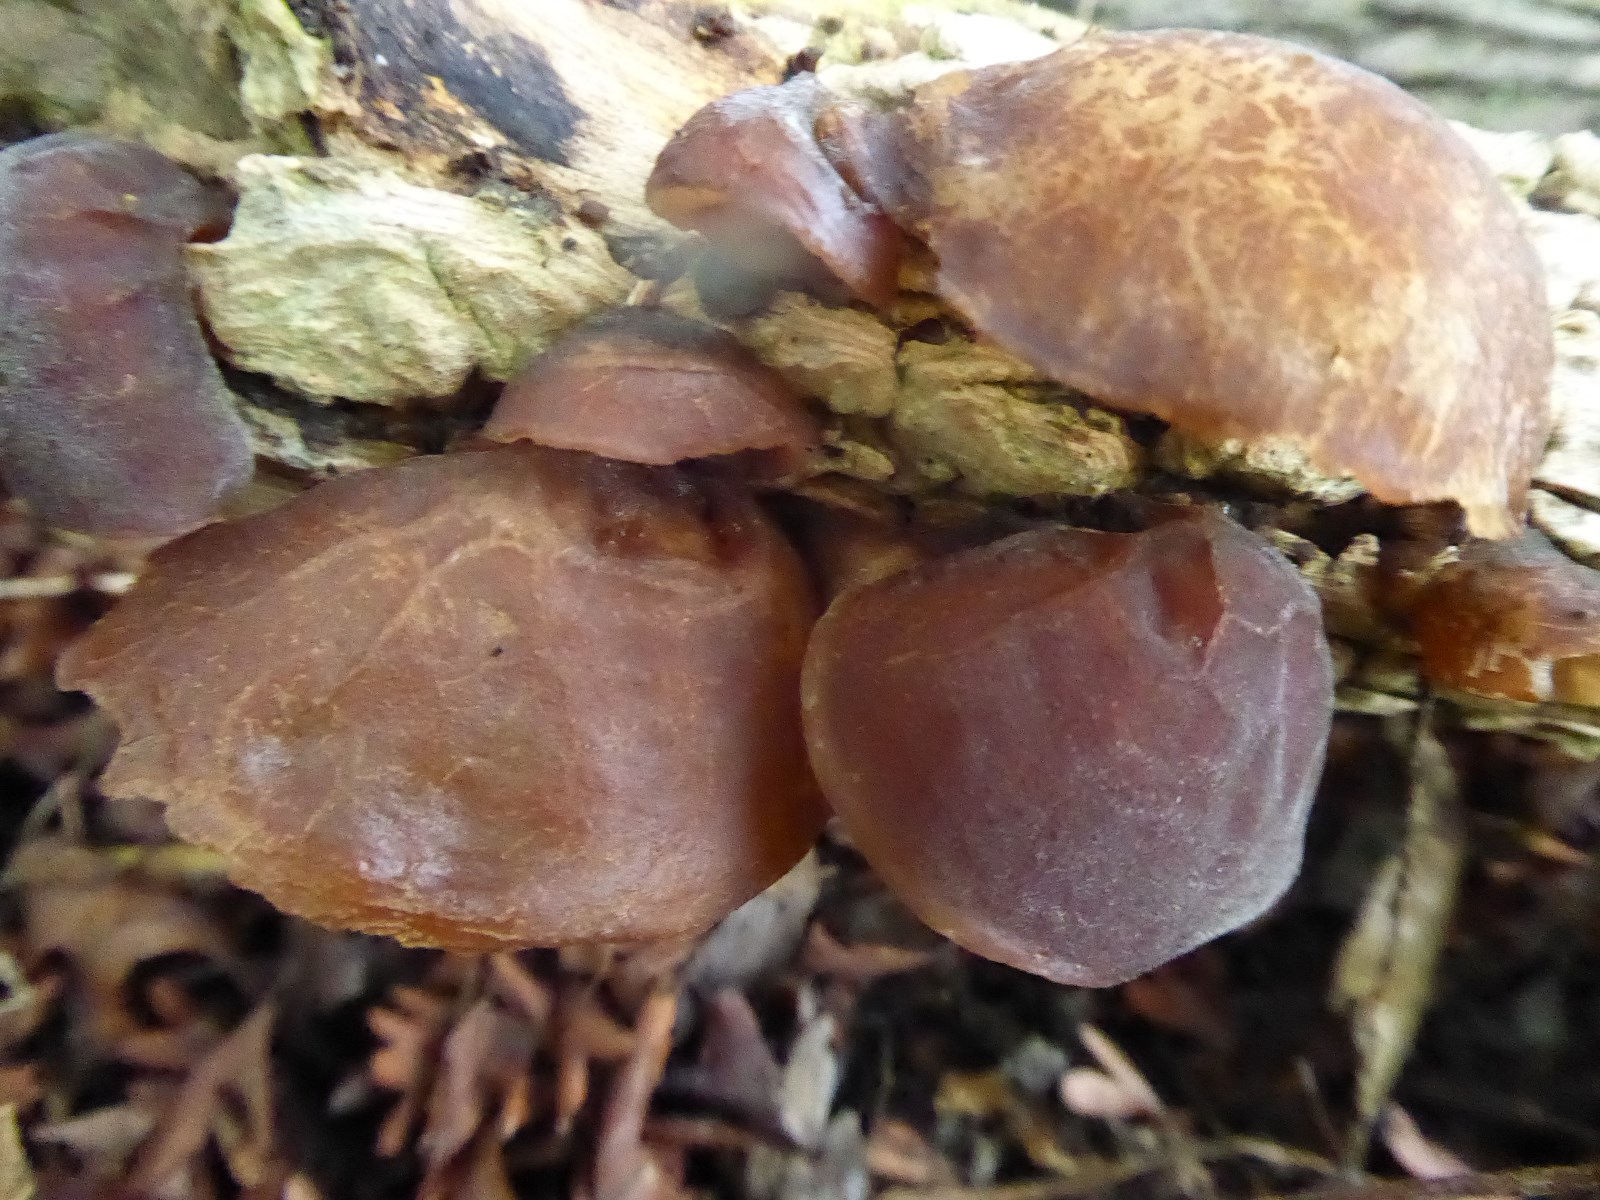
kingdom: Fungi
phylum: Basidiomycota
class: Agaricomycetes
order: Auriculariales
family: Auriculariaceae
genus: Auricularia
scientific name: Auricularia auricula-judae
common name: almindelig judasøre
